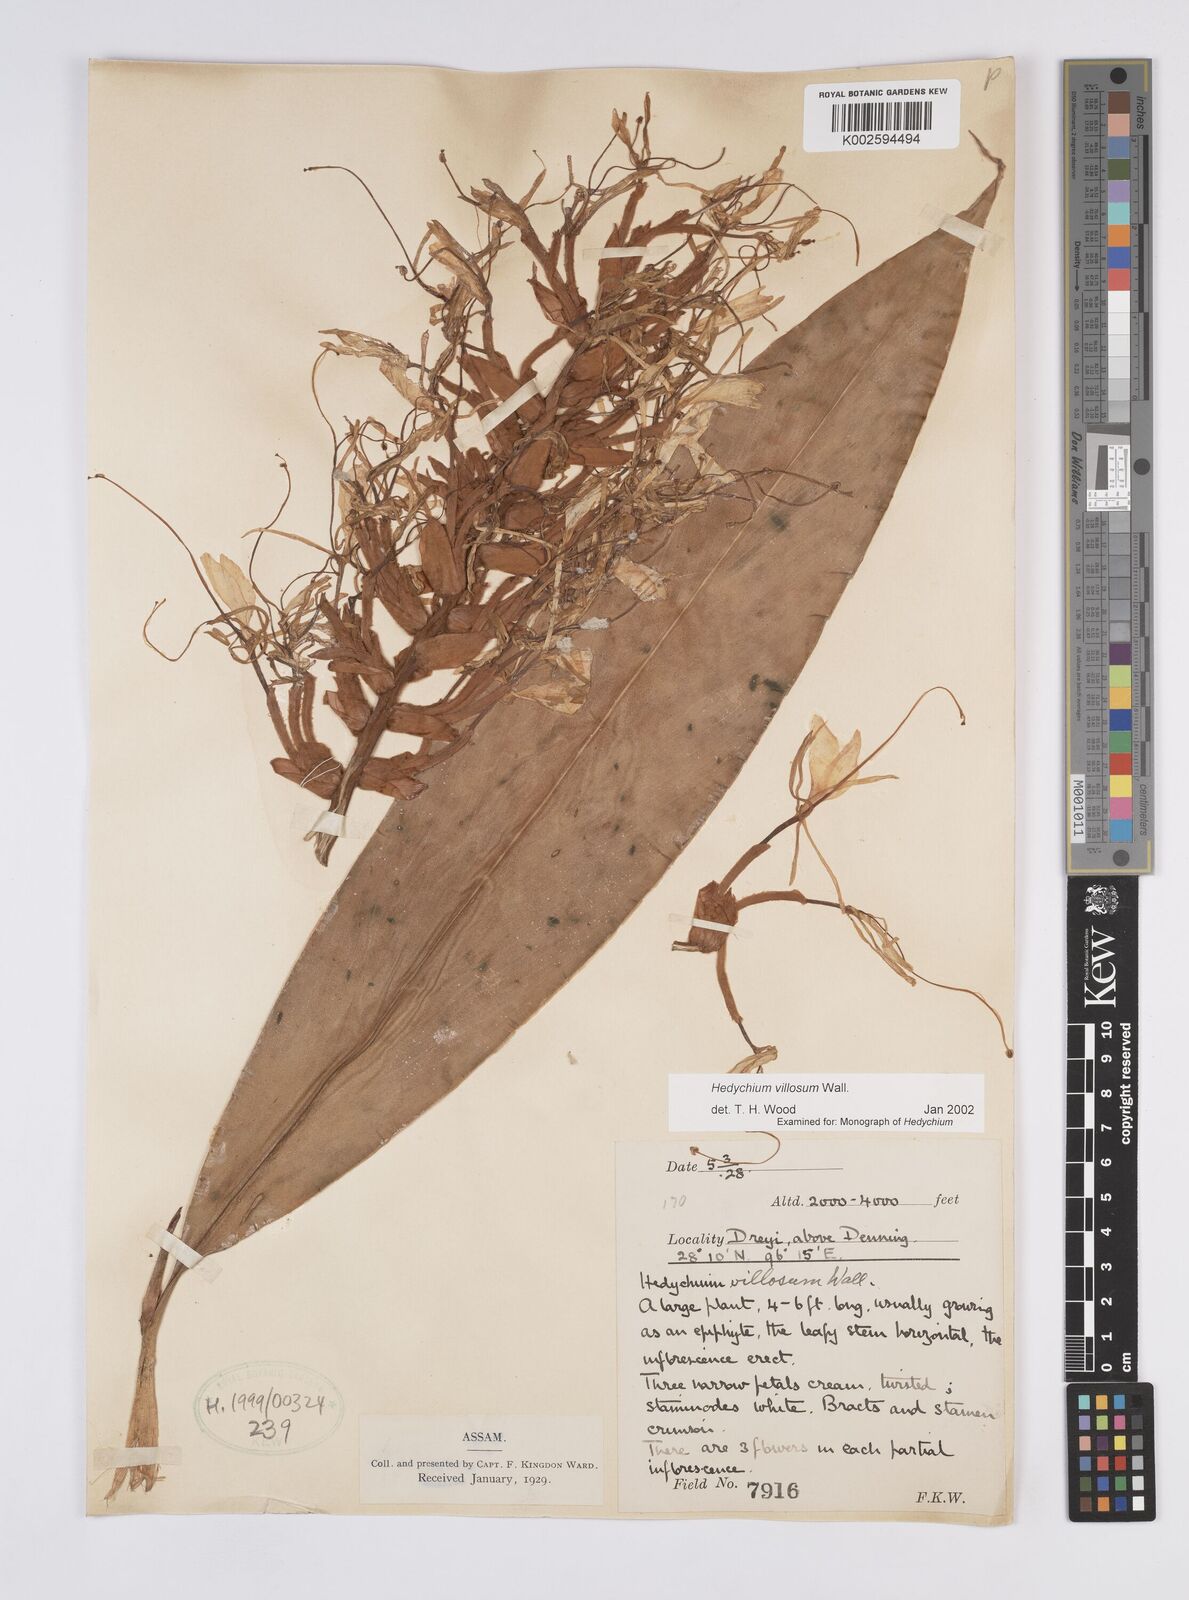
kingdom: Plantae
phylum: Tracheophyta
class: Liliopsida
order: Zingiberales
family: Zingiberaceae
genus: Hedychium
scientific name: Hedychium villosum
